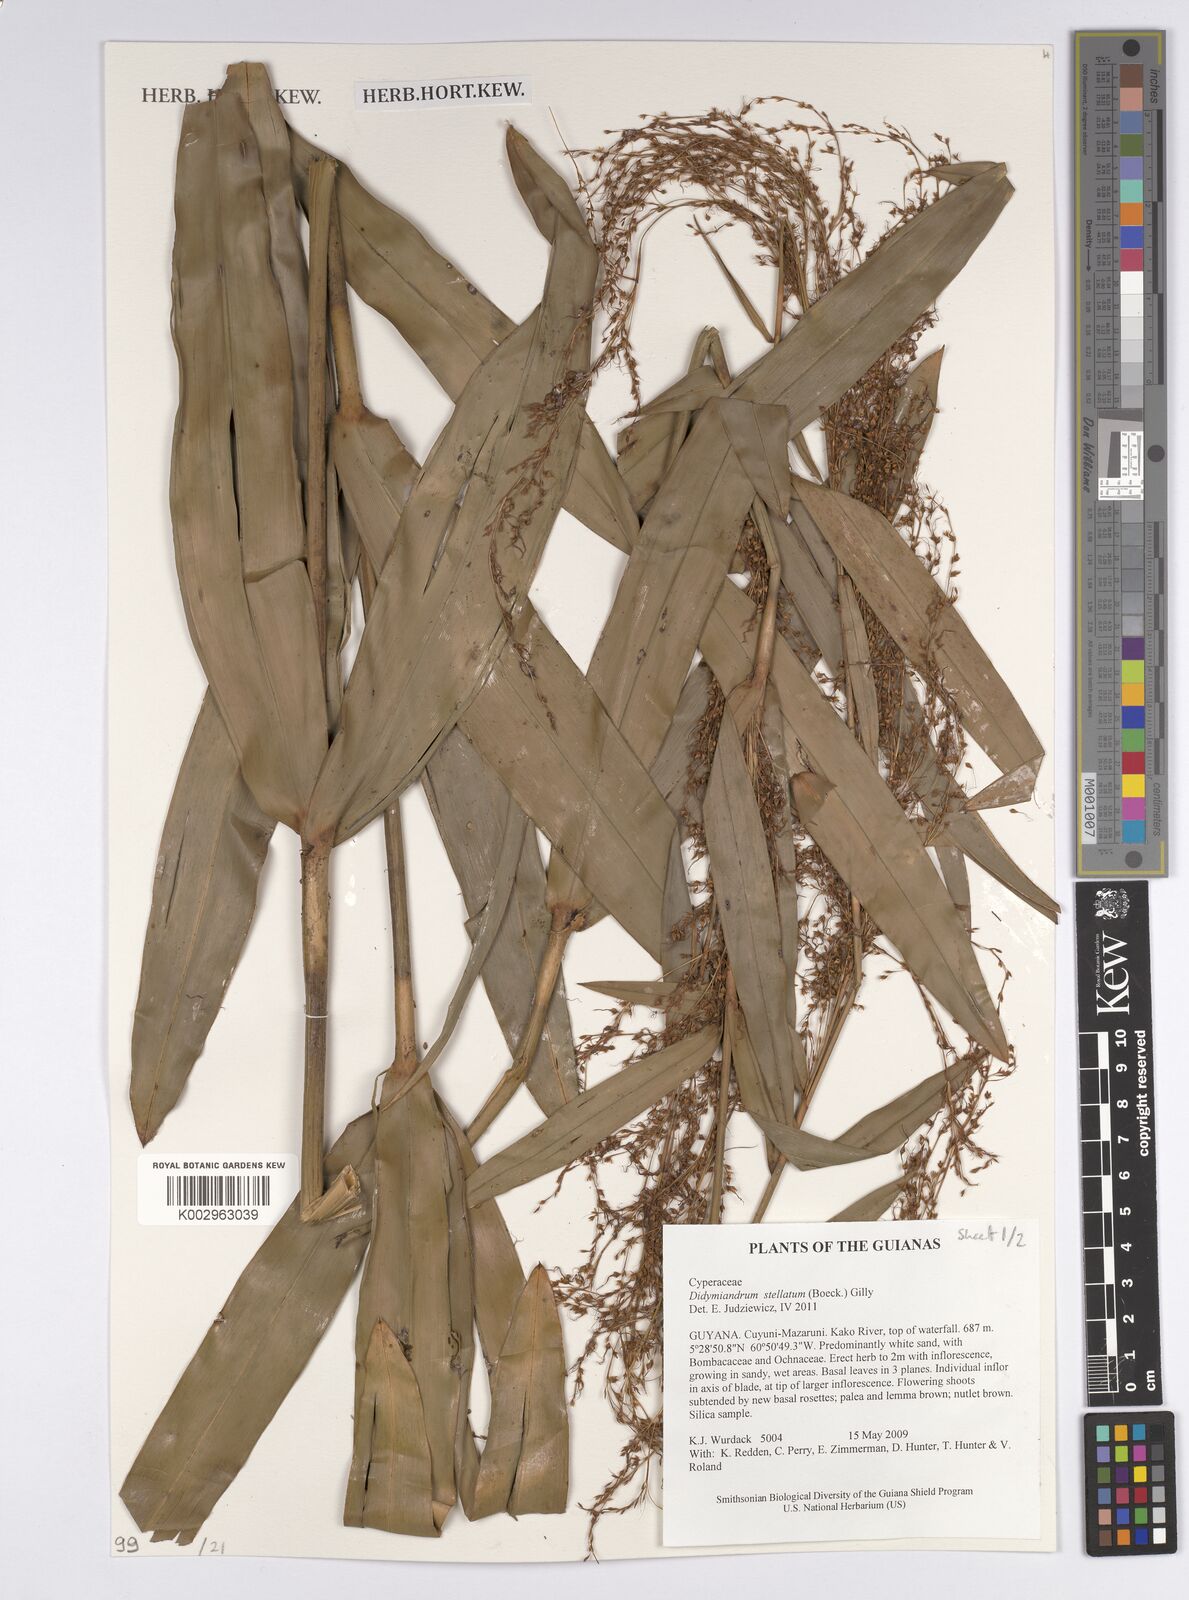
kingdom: Plantae
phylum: Tracheophyta
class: Liliopsida
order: Poales
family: Cyperaceae
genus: Didymiandrum
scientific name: Didymiandrum stellatum
